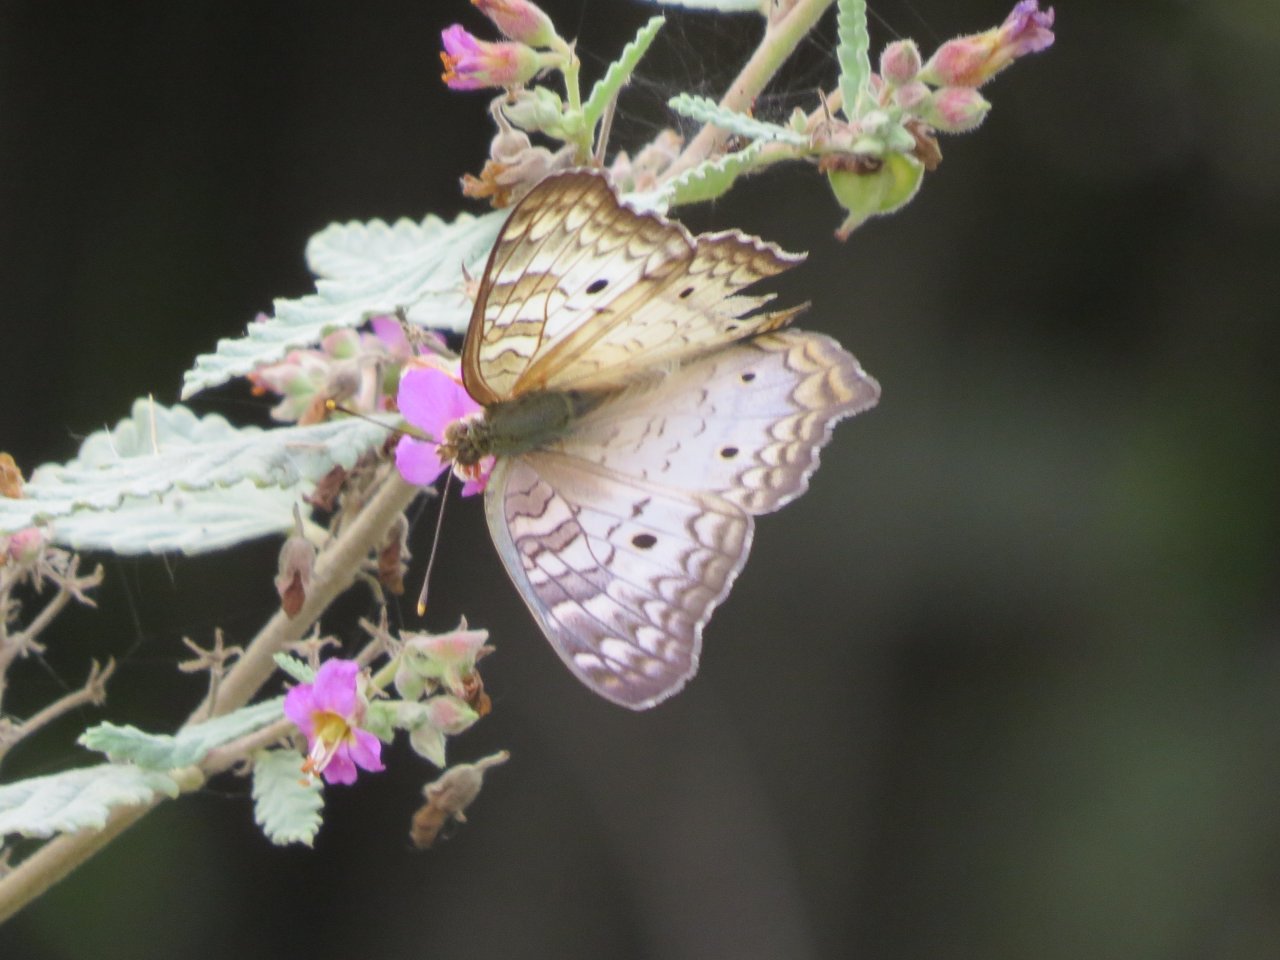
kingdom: Animalia
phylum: Arthropoda
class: Insecta
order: Lepidoptera
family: Nymphalidae
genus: Anartia
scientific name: Anartia jatrophae
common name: White Peacock
